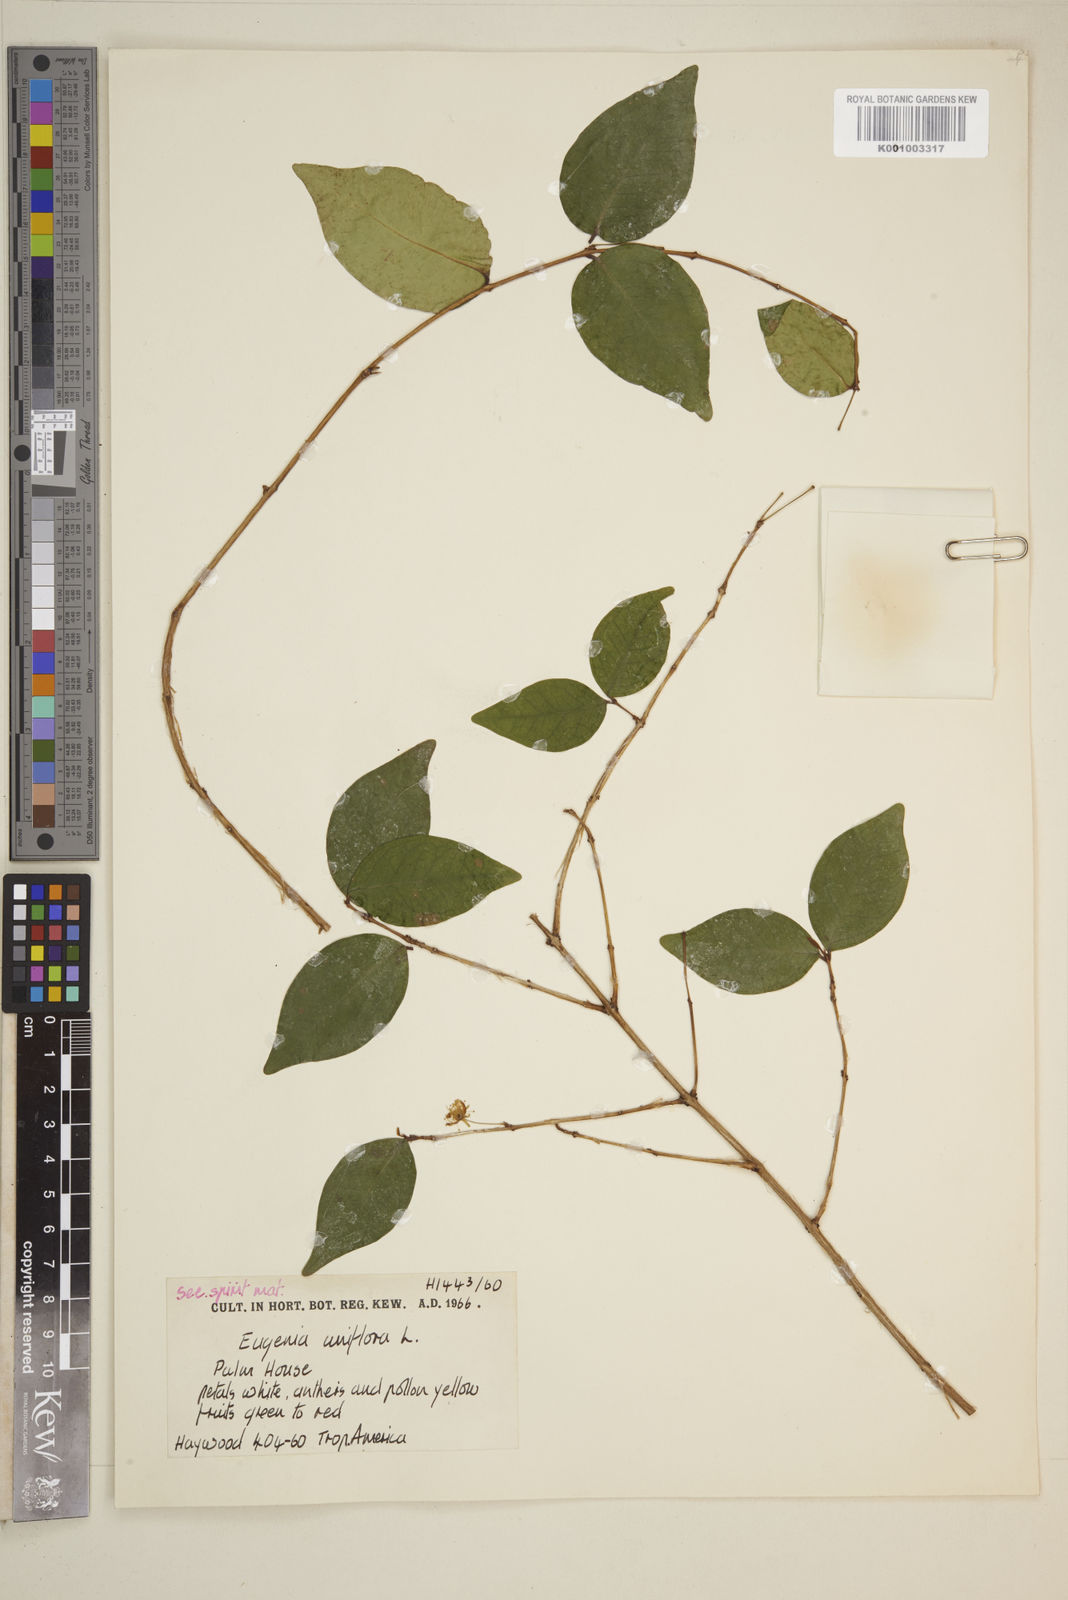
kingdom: Plantae
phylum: Tracheophyta
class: Magnoliopsida
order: Myrtales
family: Myrtaceae
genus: Eugenia
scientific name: Eugenia uniflora
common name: Surinam cherry
